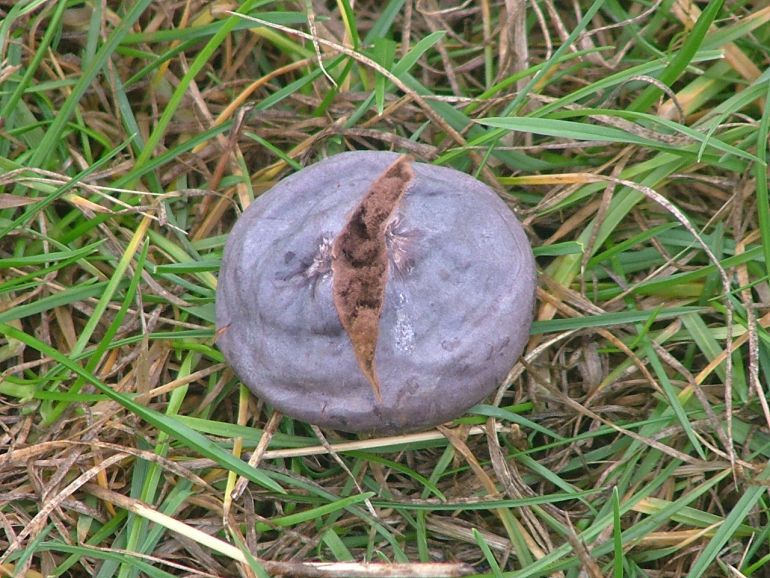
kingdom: Fungi
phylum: Basidiomycota
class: Agaricomycetes
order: Agaricales
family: Lycoperdaceae
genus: Bovista
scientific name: Bovista plumbea
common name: blygrå bovist
